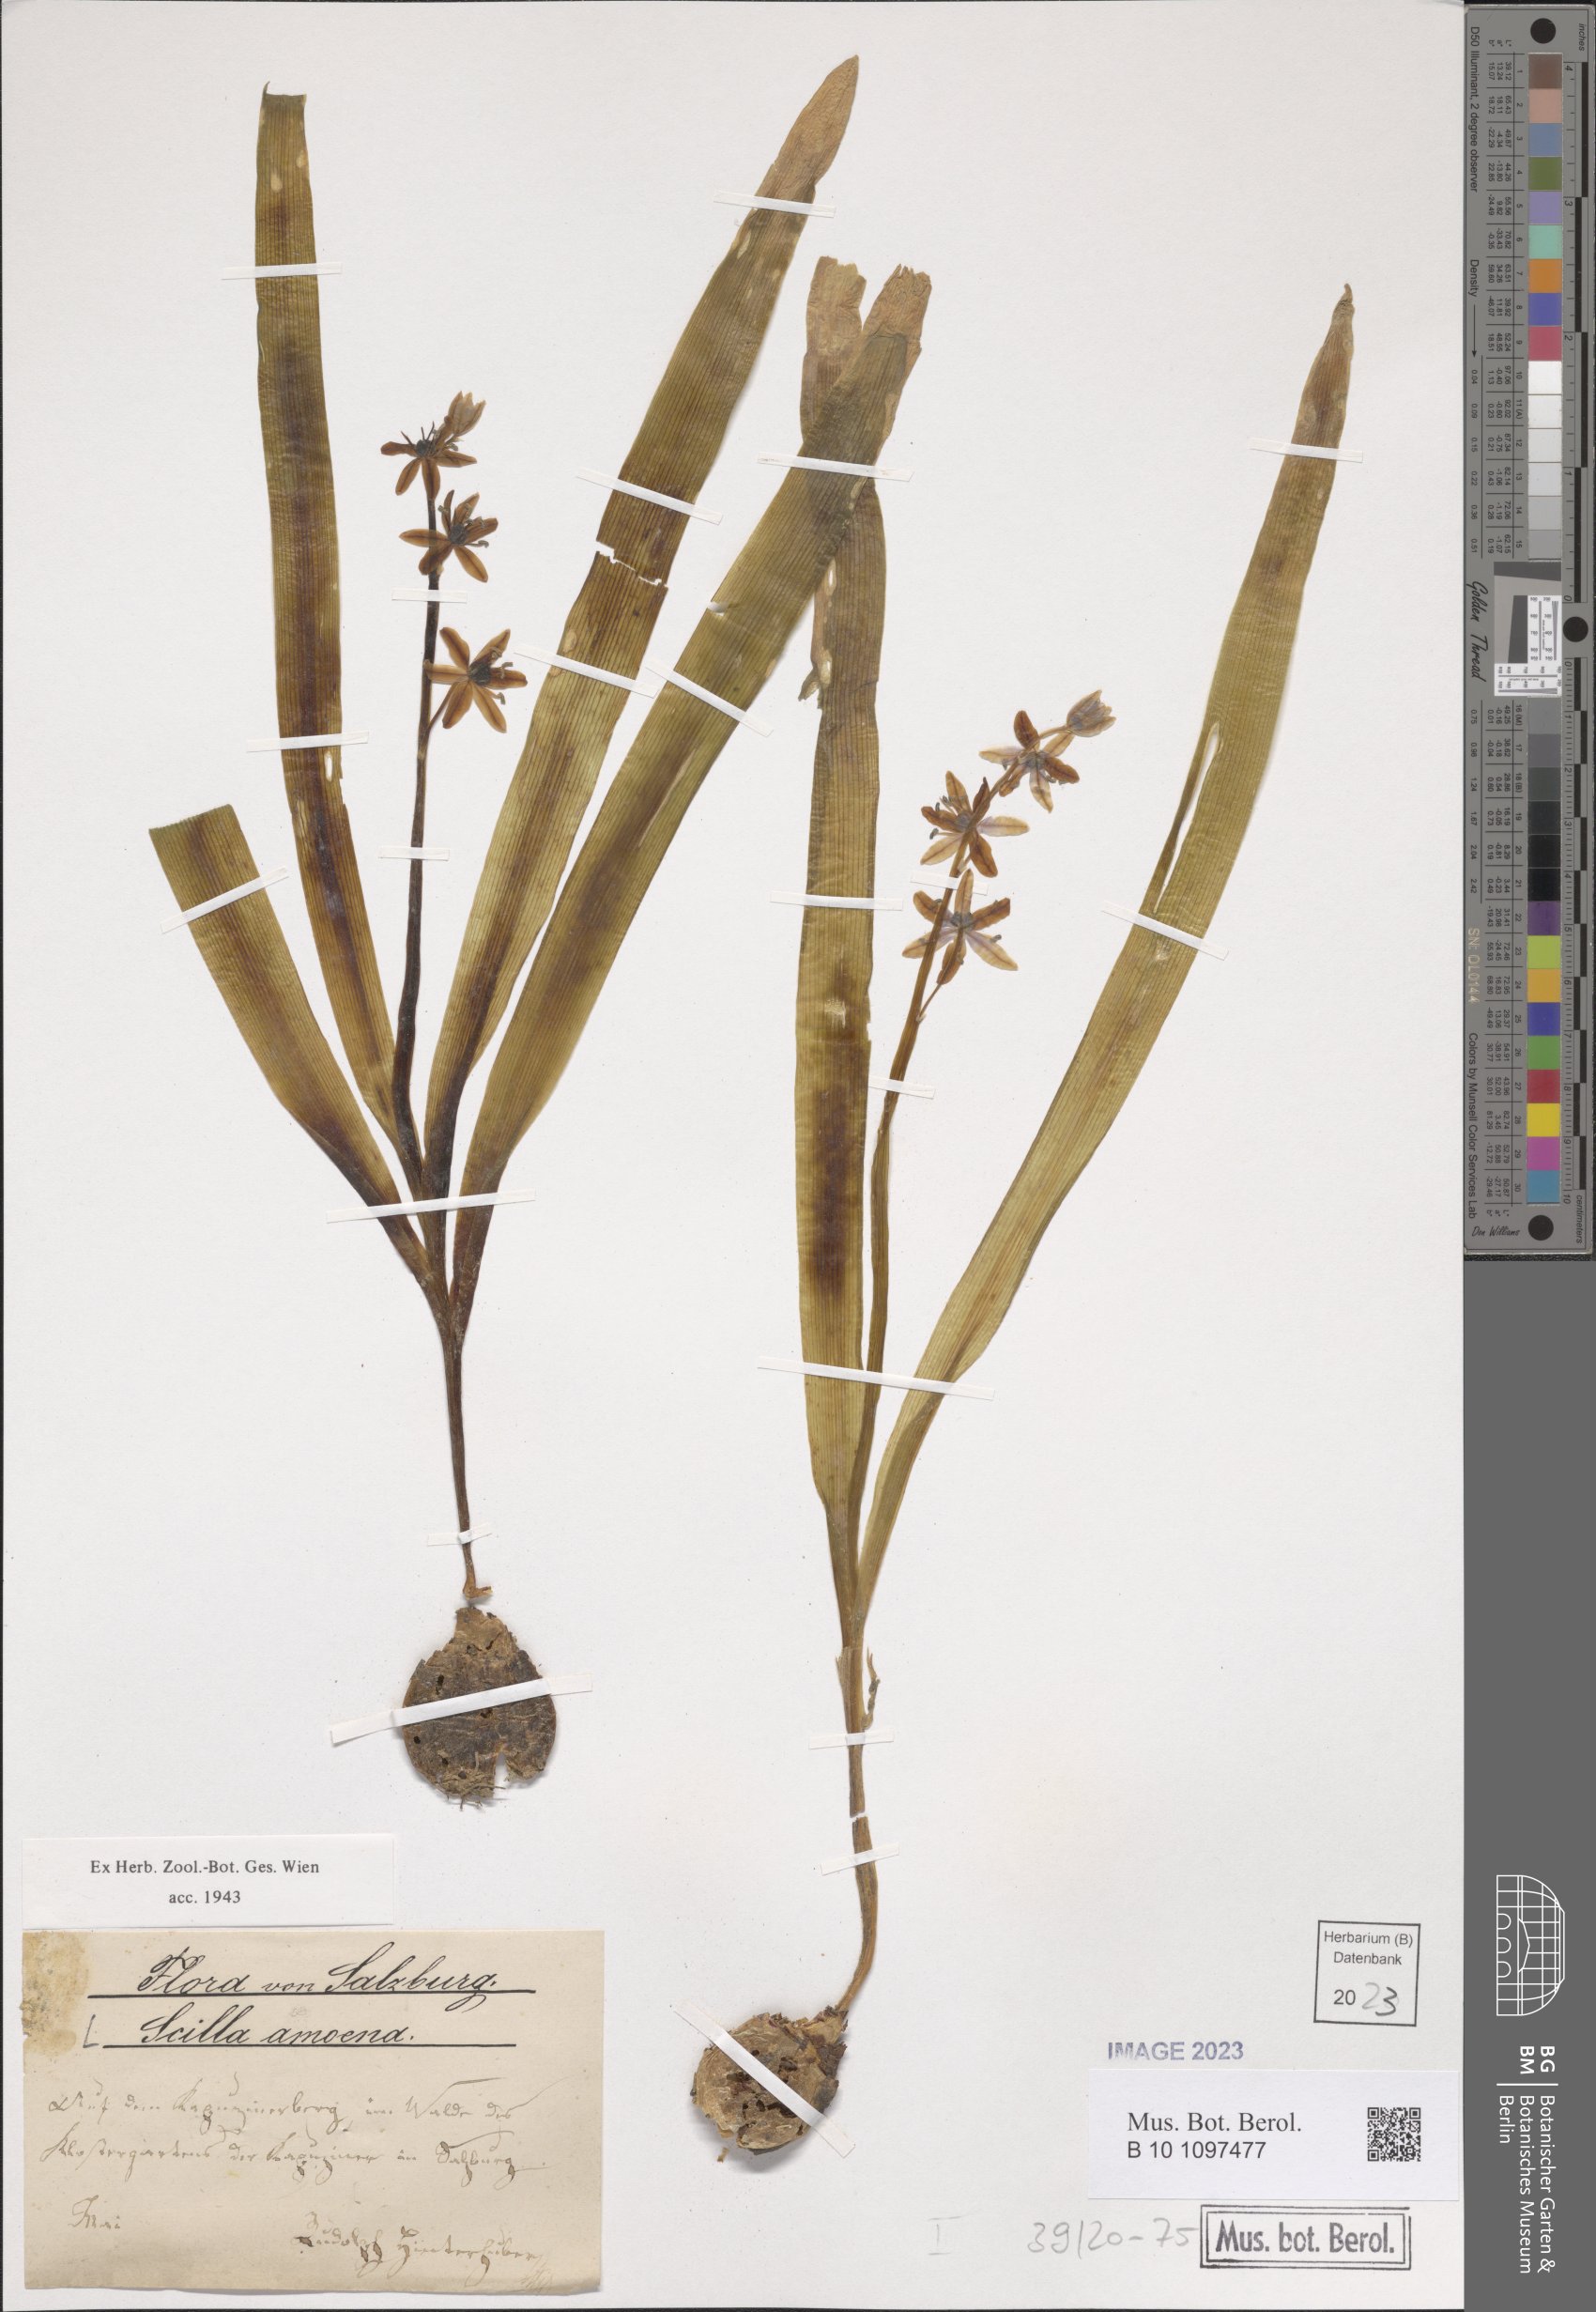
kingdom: Plantae
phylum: Tracheophyta
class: Liliopsida
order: Asparagales
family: Asparagaceae
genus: Scilla
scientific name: Scilla amoena
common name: Star-hyacinth
